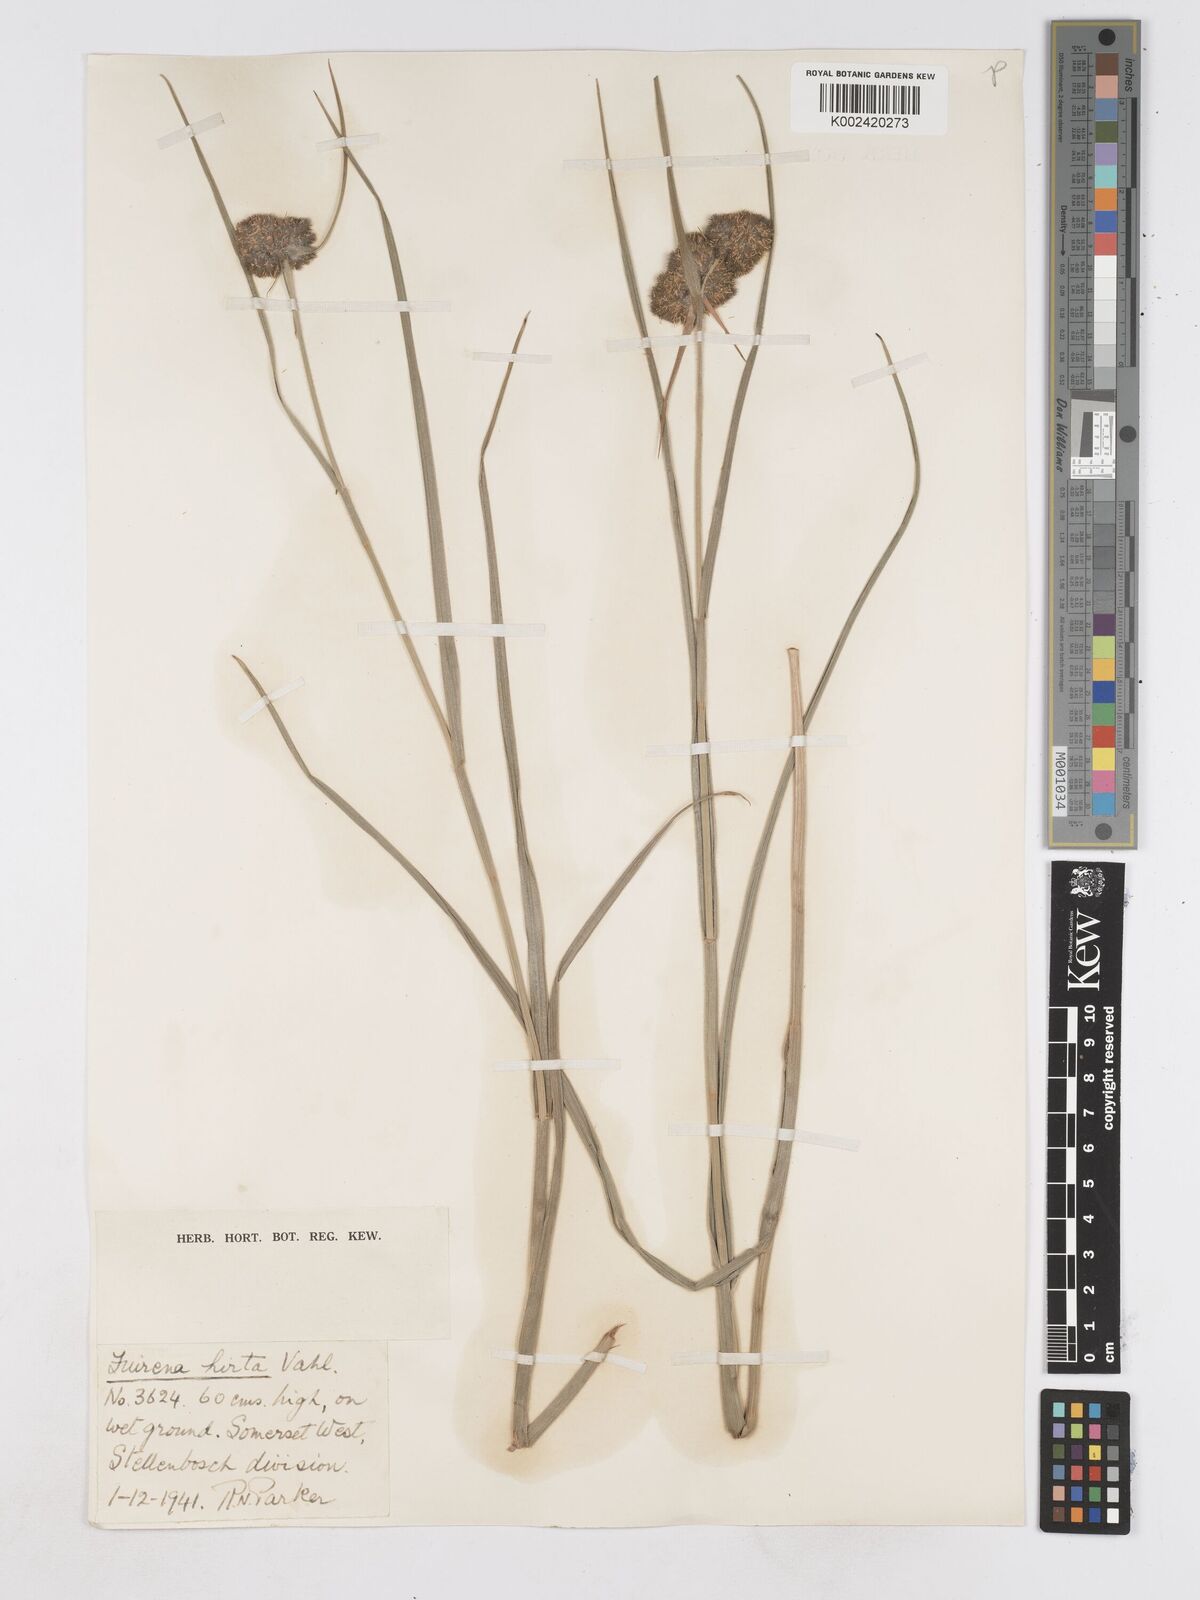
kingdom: Plantae
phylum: Tracheophyta
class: Liliopsida
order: Poales
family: Cyperaceae
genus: Fuirena
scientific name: Fuirena hirsuta
